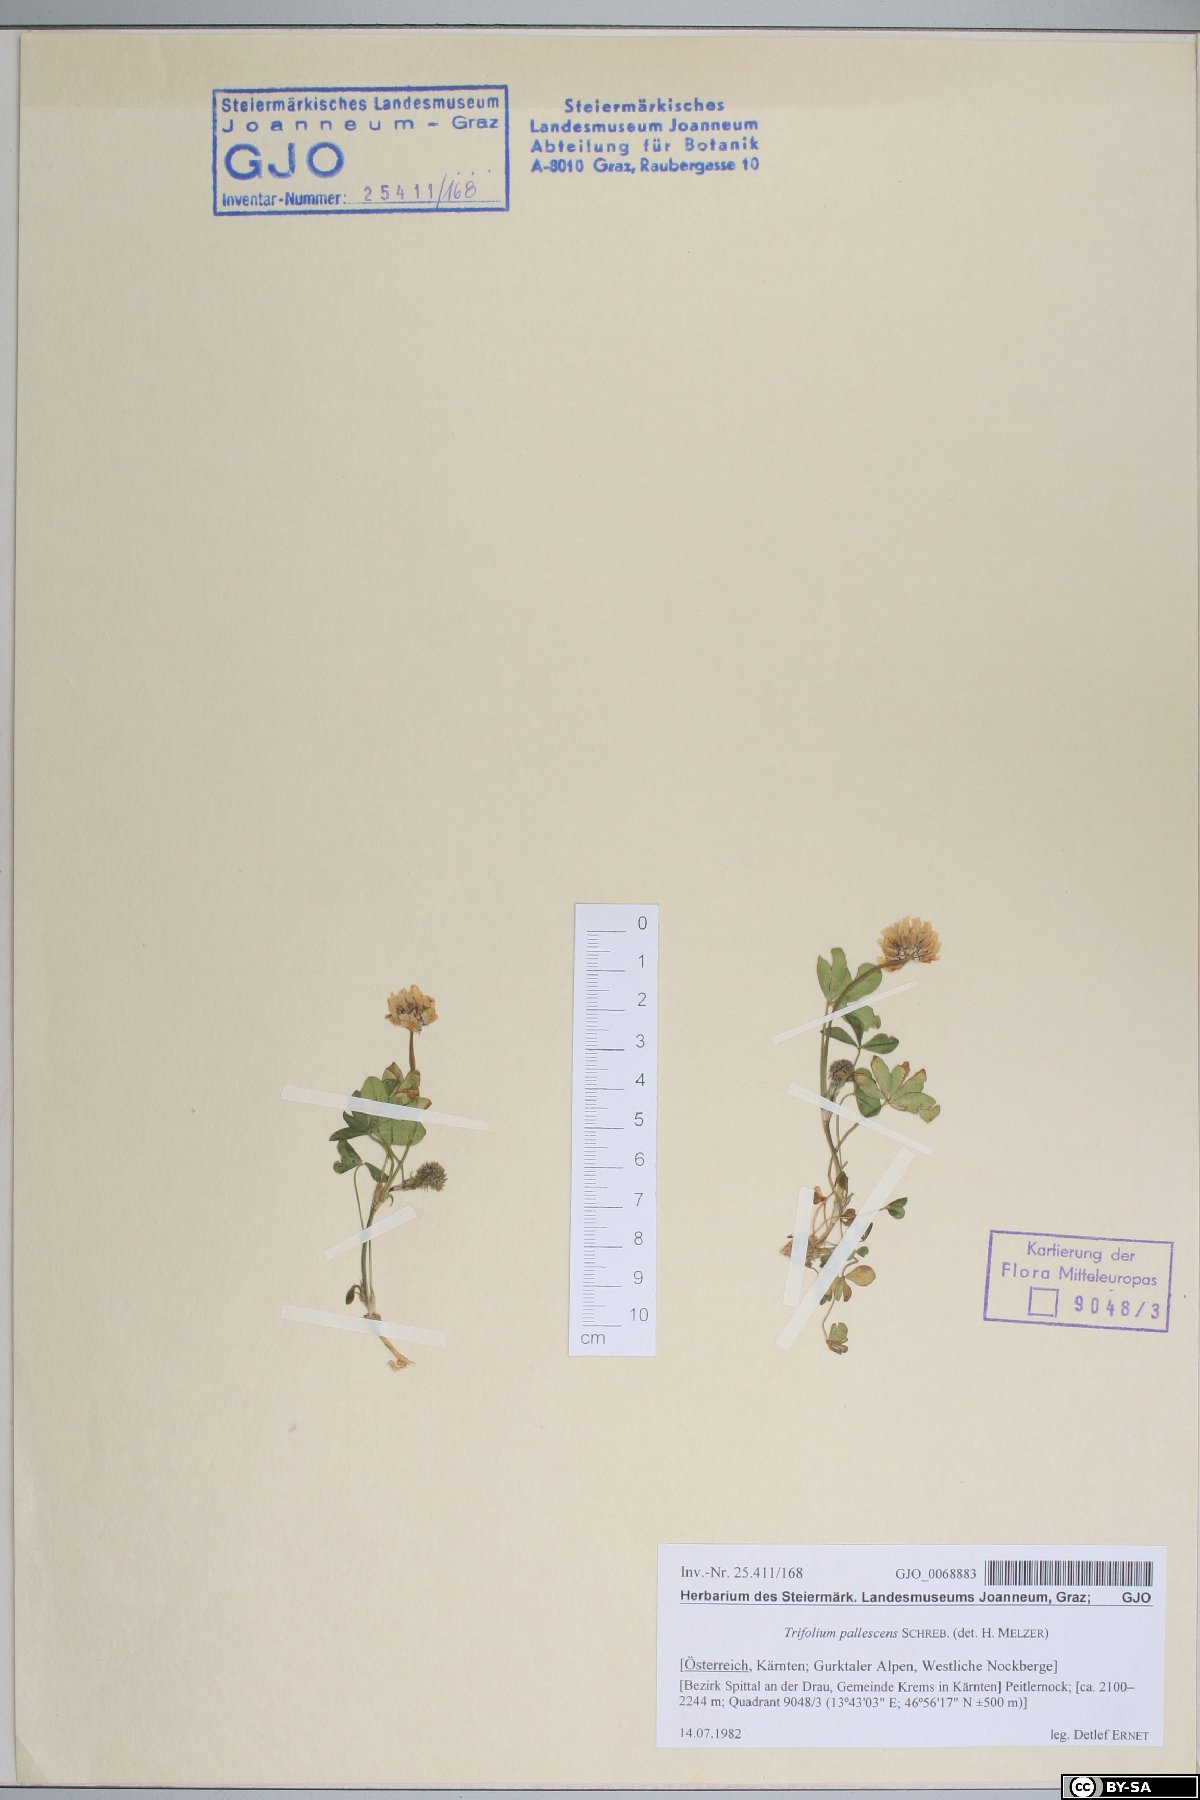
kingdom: Plantae
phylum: Tracheophyta
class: Magnoliopsida
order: Fabales
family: Fabaceae
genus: Trifolium
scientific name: Trifolium pallescens
